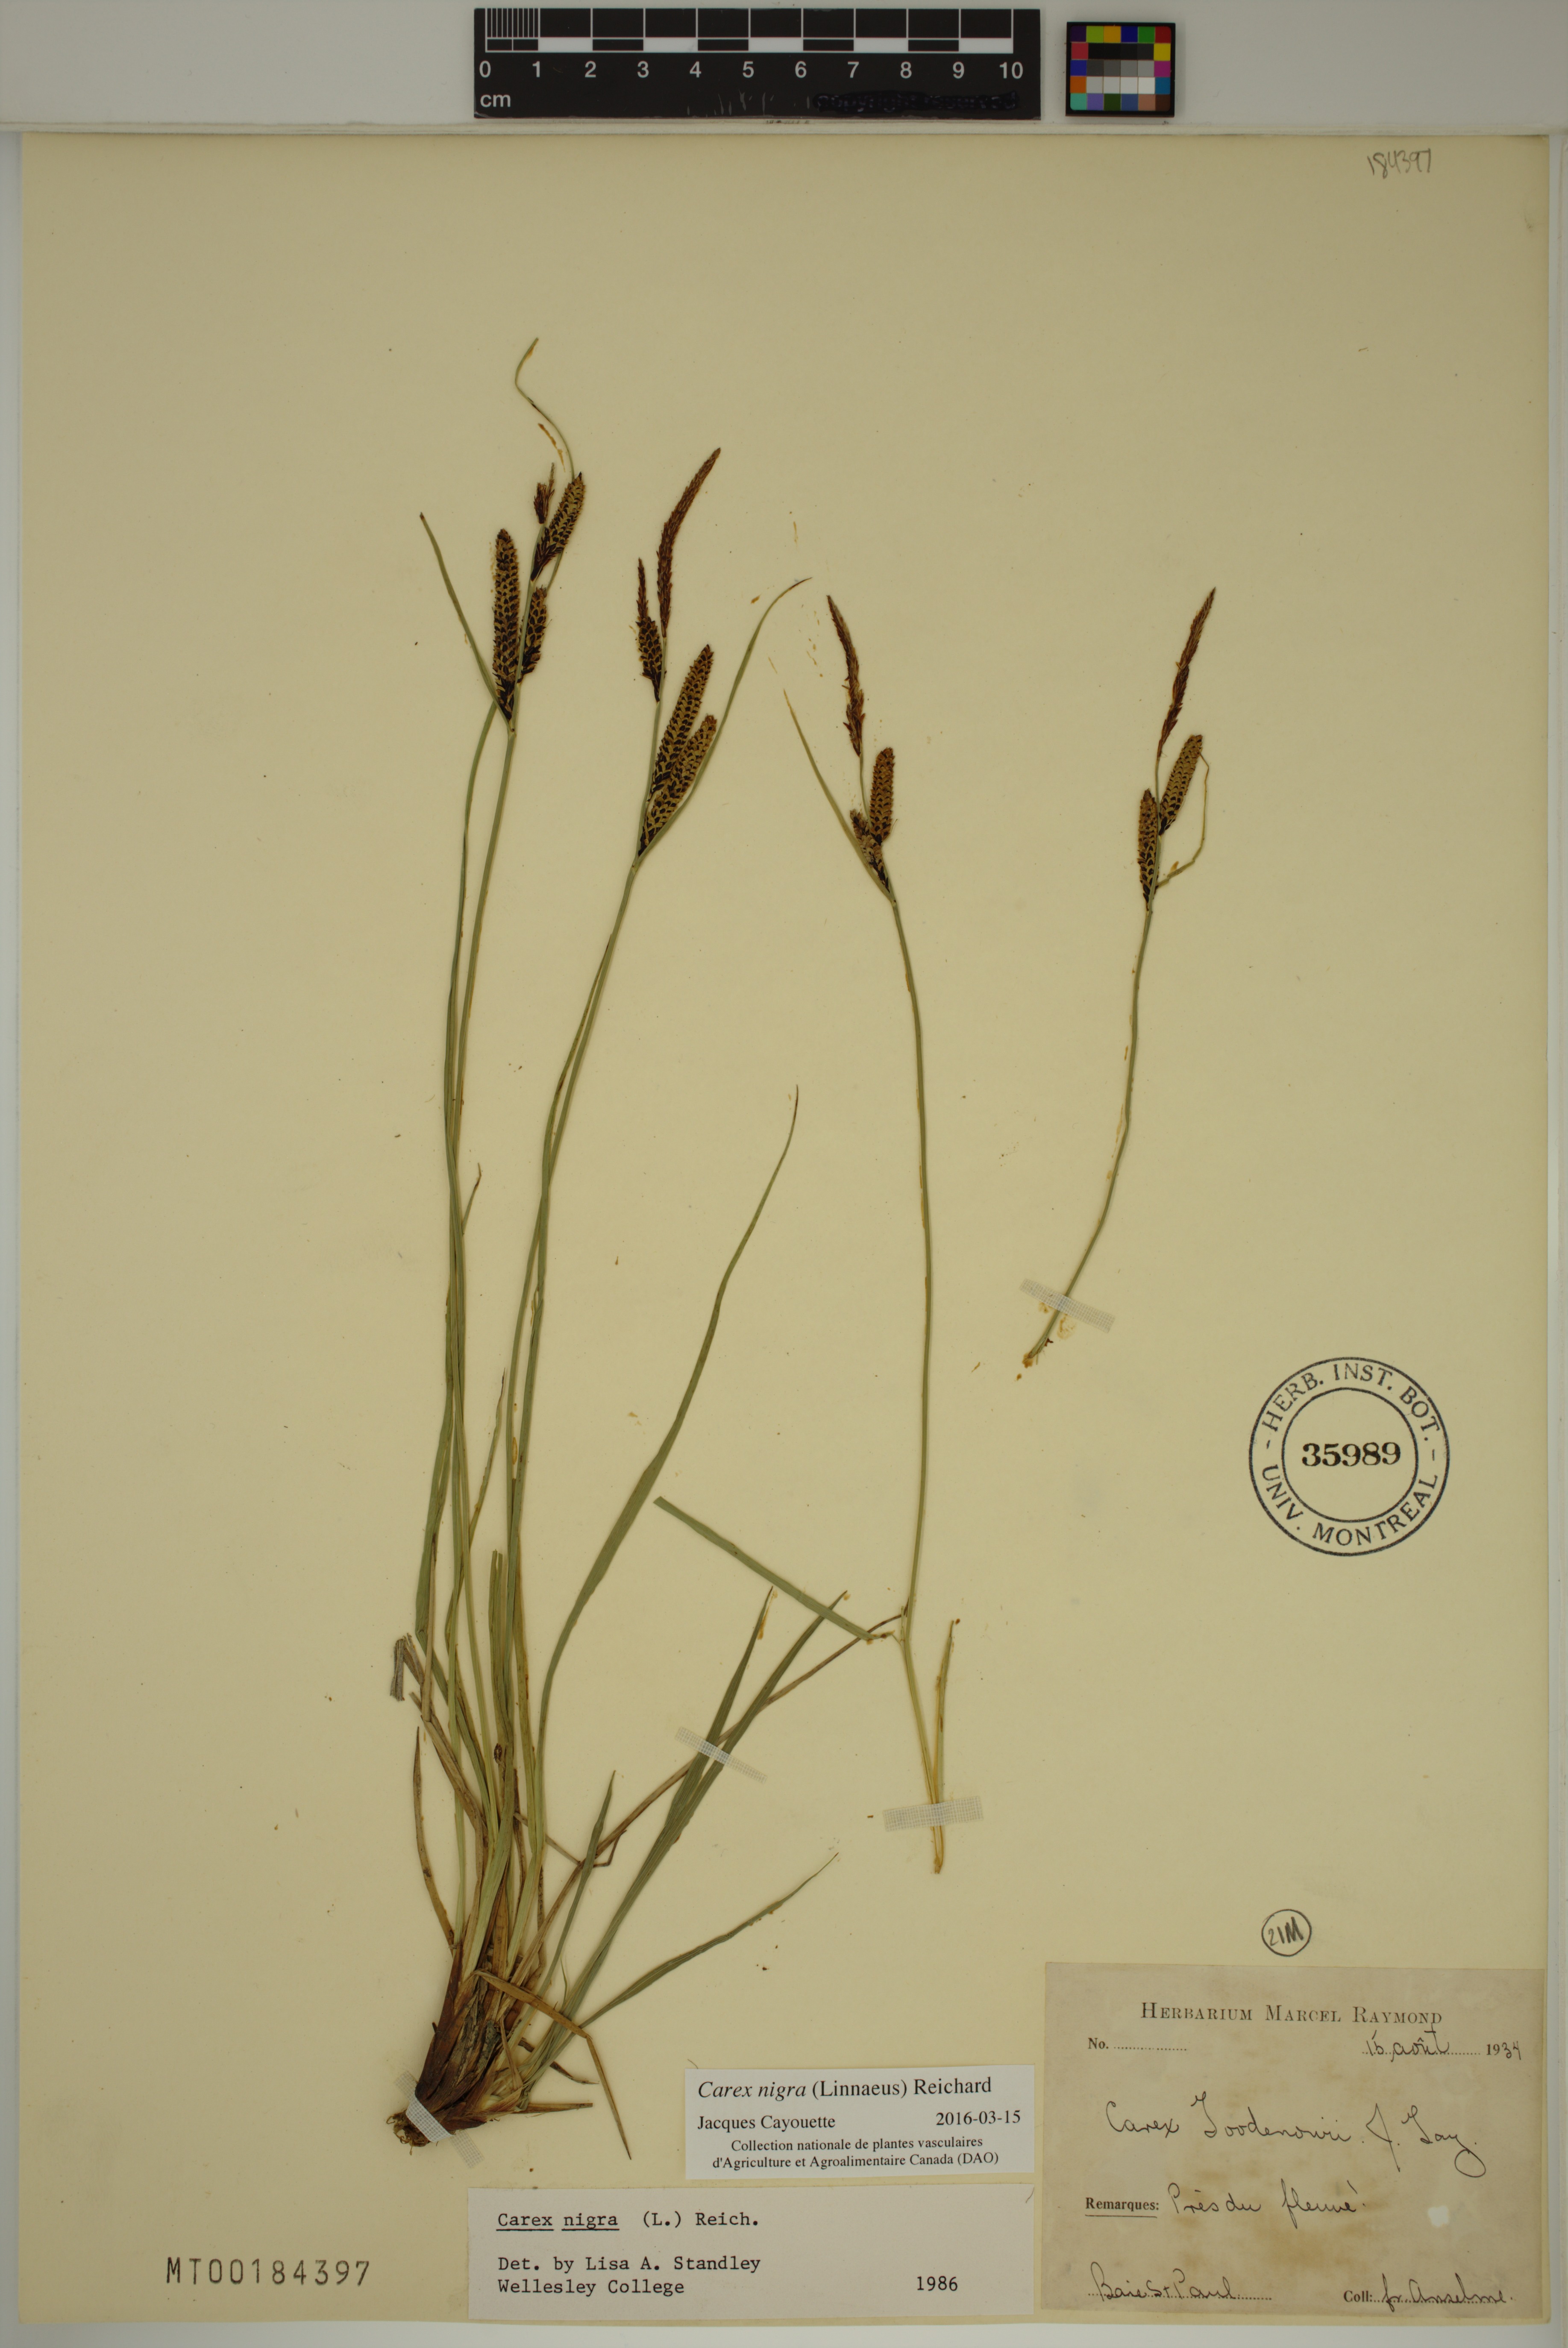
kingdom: Plantae
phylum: Tracheophyta
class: Liliopsida
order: Poales
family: Cyperaceae
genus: Carex
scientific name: Carex nigra
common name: Common sedge
